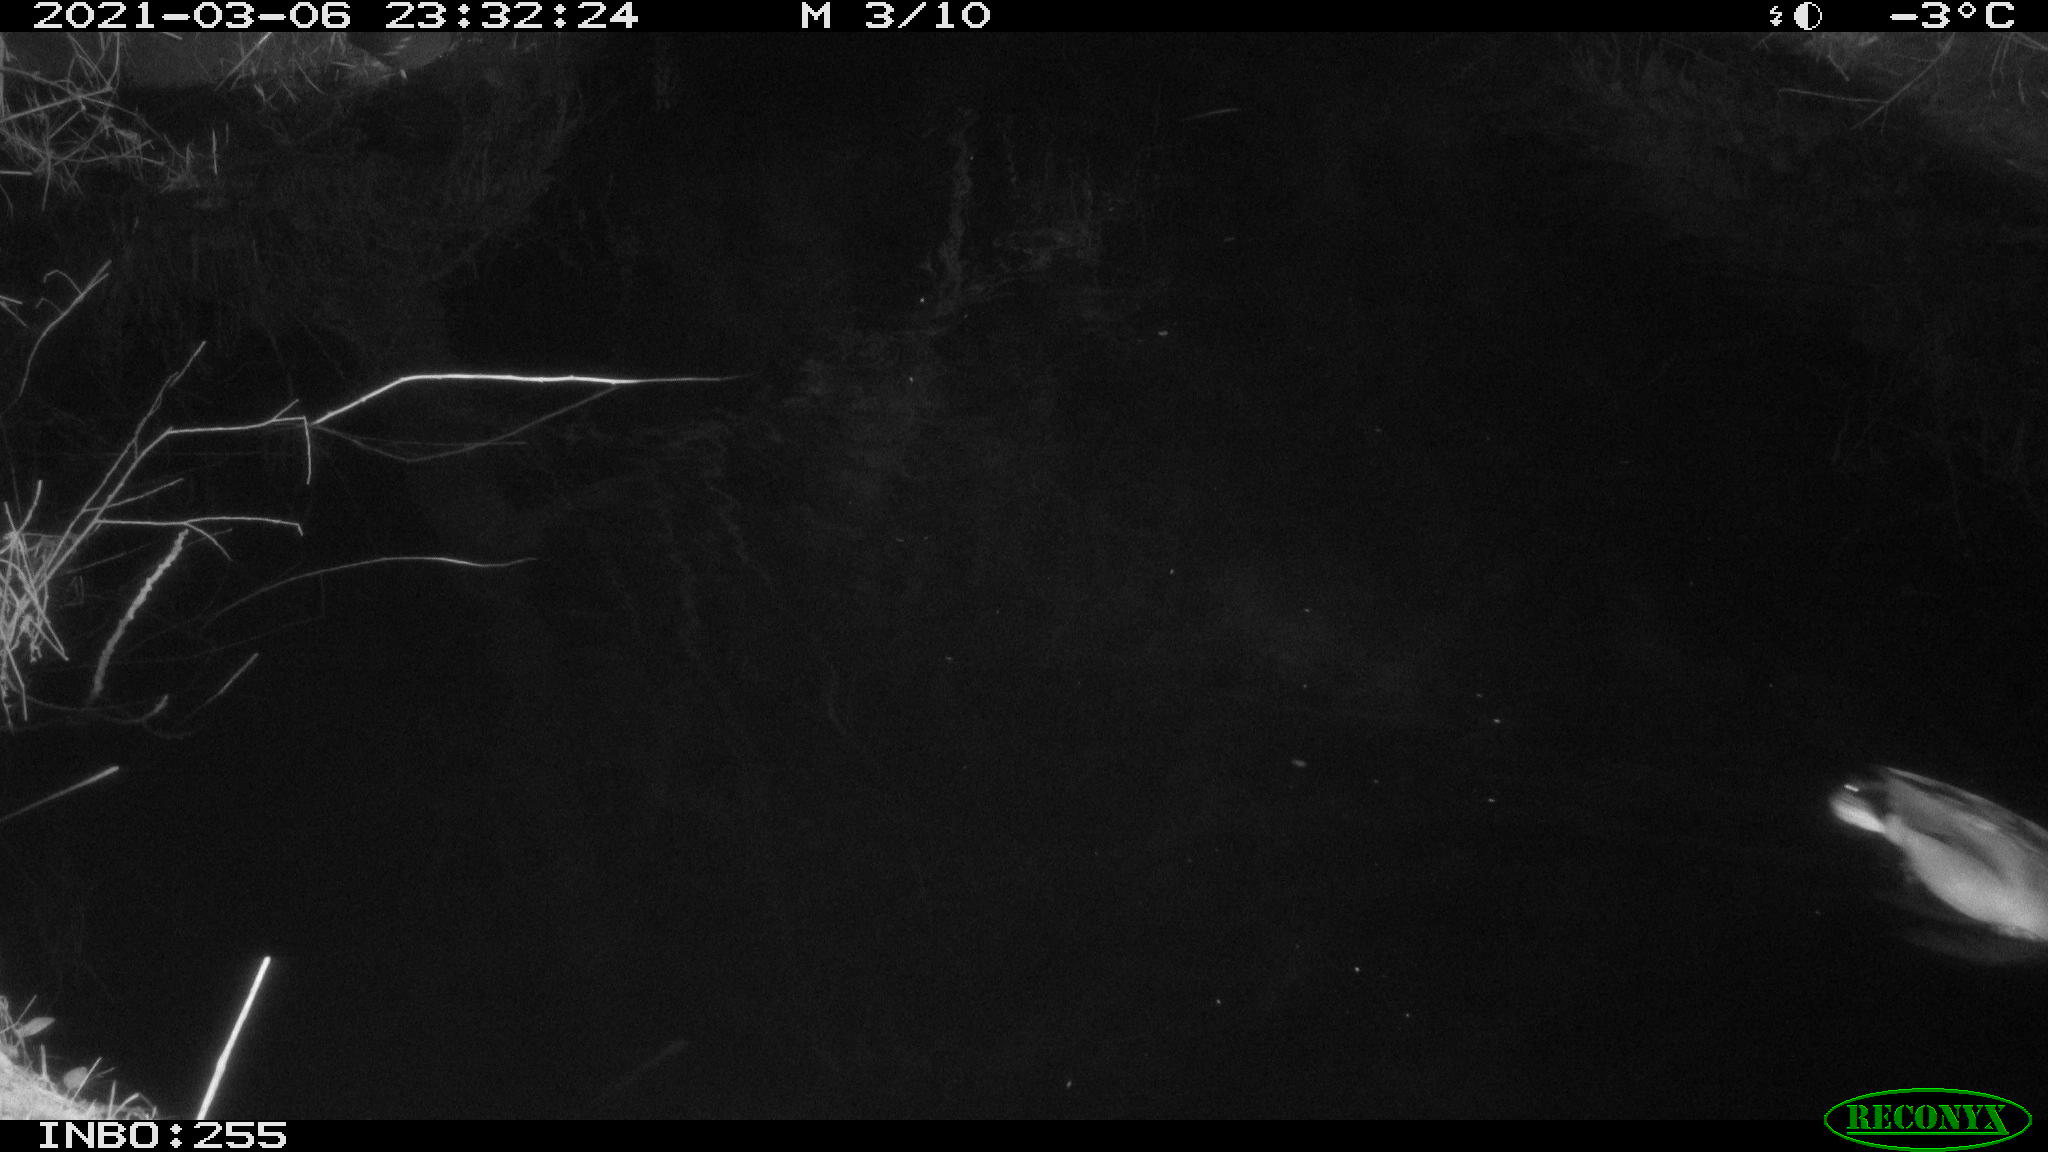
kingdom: Animalia
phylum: Chordata
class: Aves
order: Anseriformes
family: Anatidae
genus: Anas
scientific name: Anas platyrhynchos
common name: Mallard
